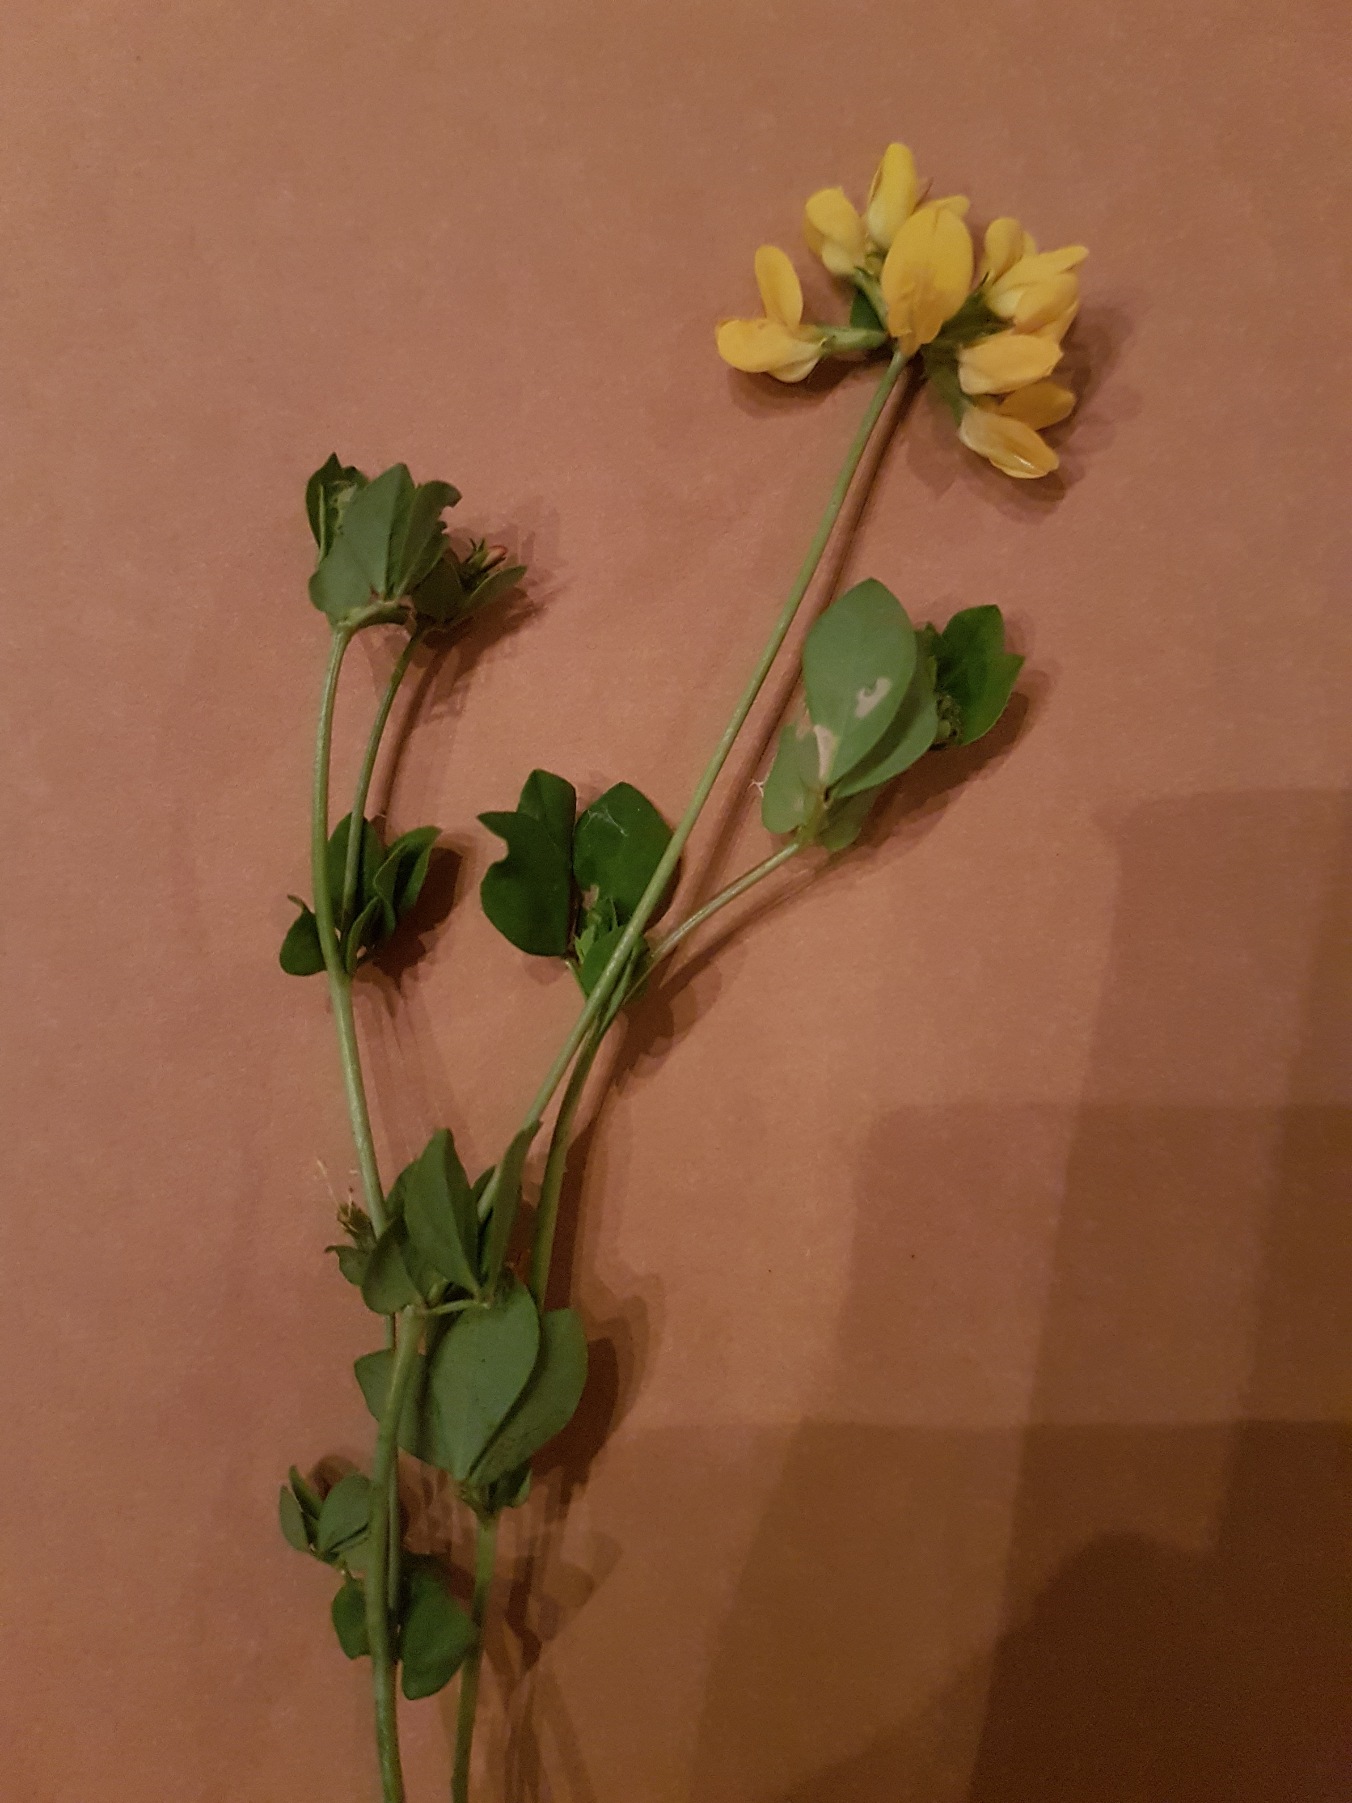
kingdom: Plantae
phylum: Tracheophyta
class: Magnoliopsida
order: Fabales
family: Fabaceae
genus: Lotus
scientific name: Lotus corniculatus
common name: Almindelig kællingetand
